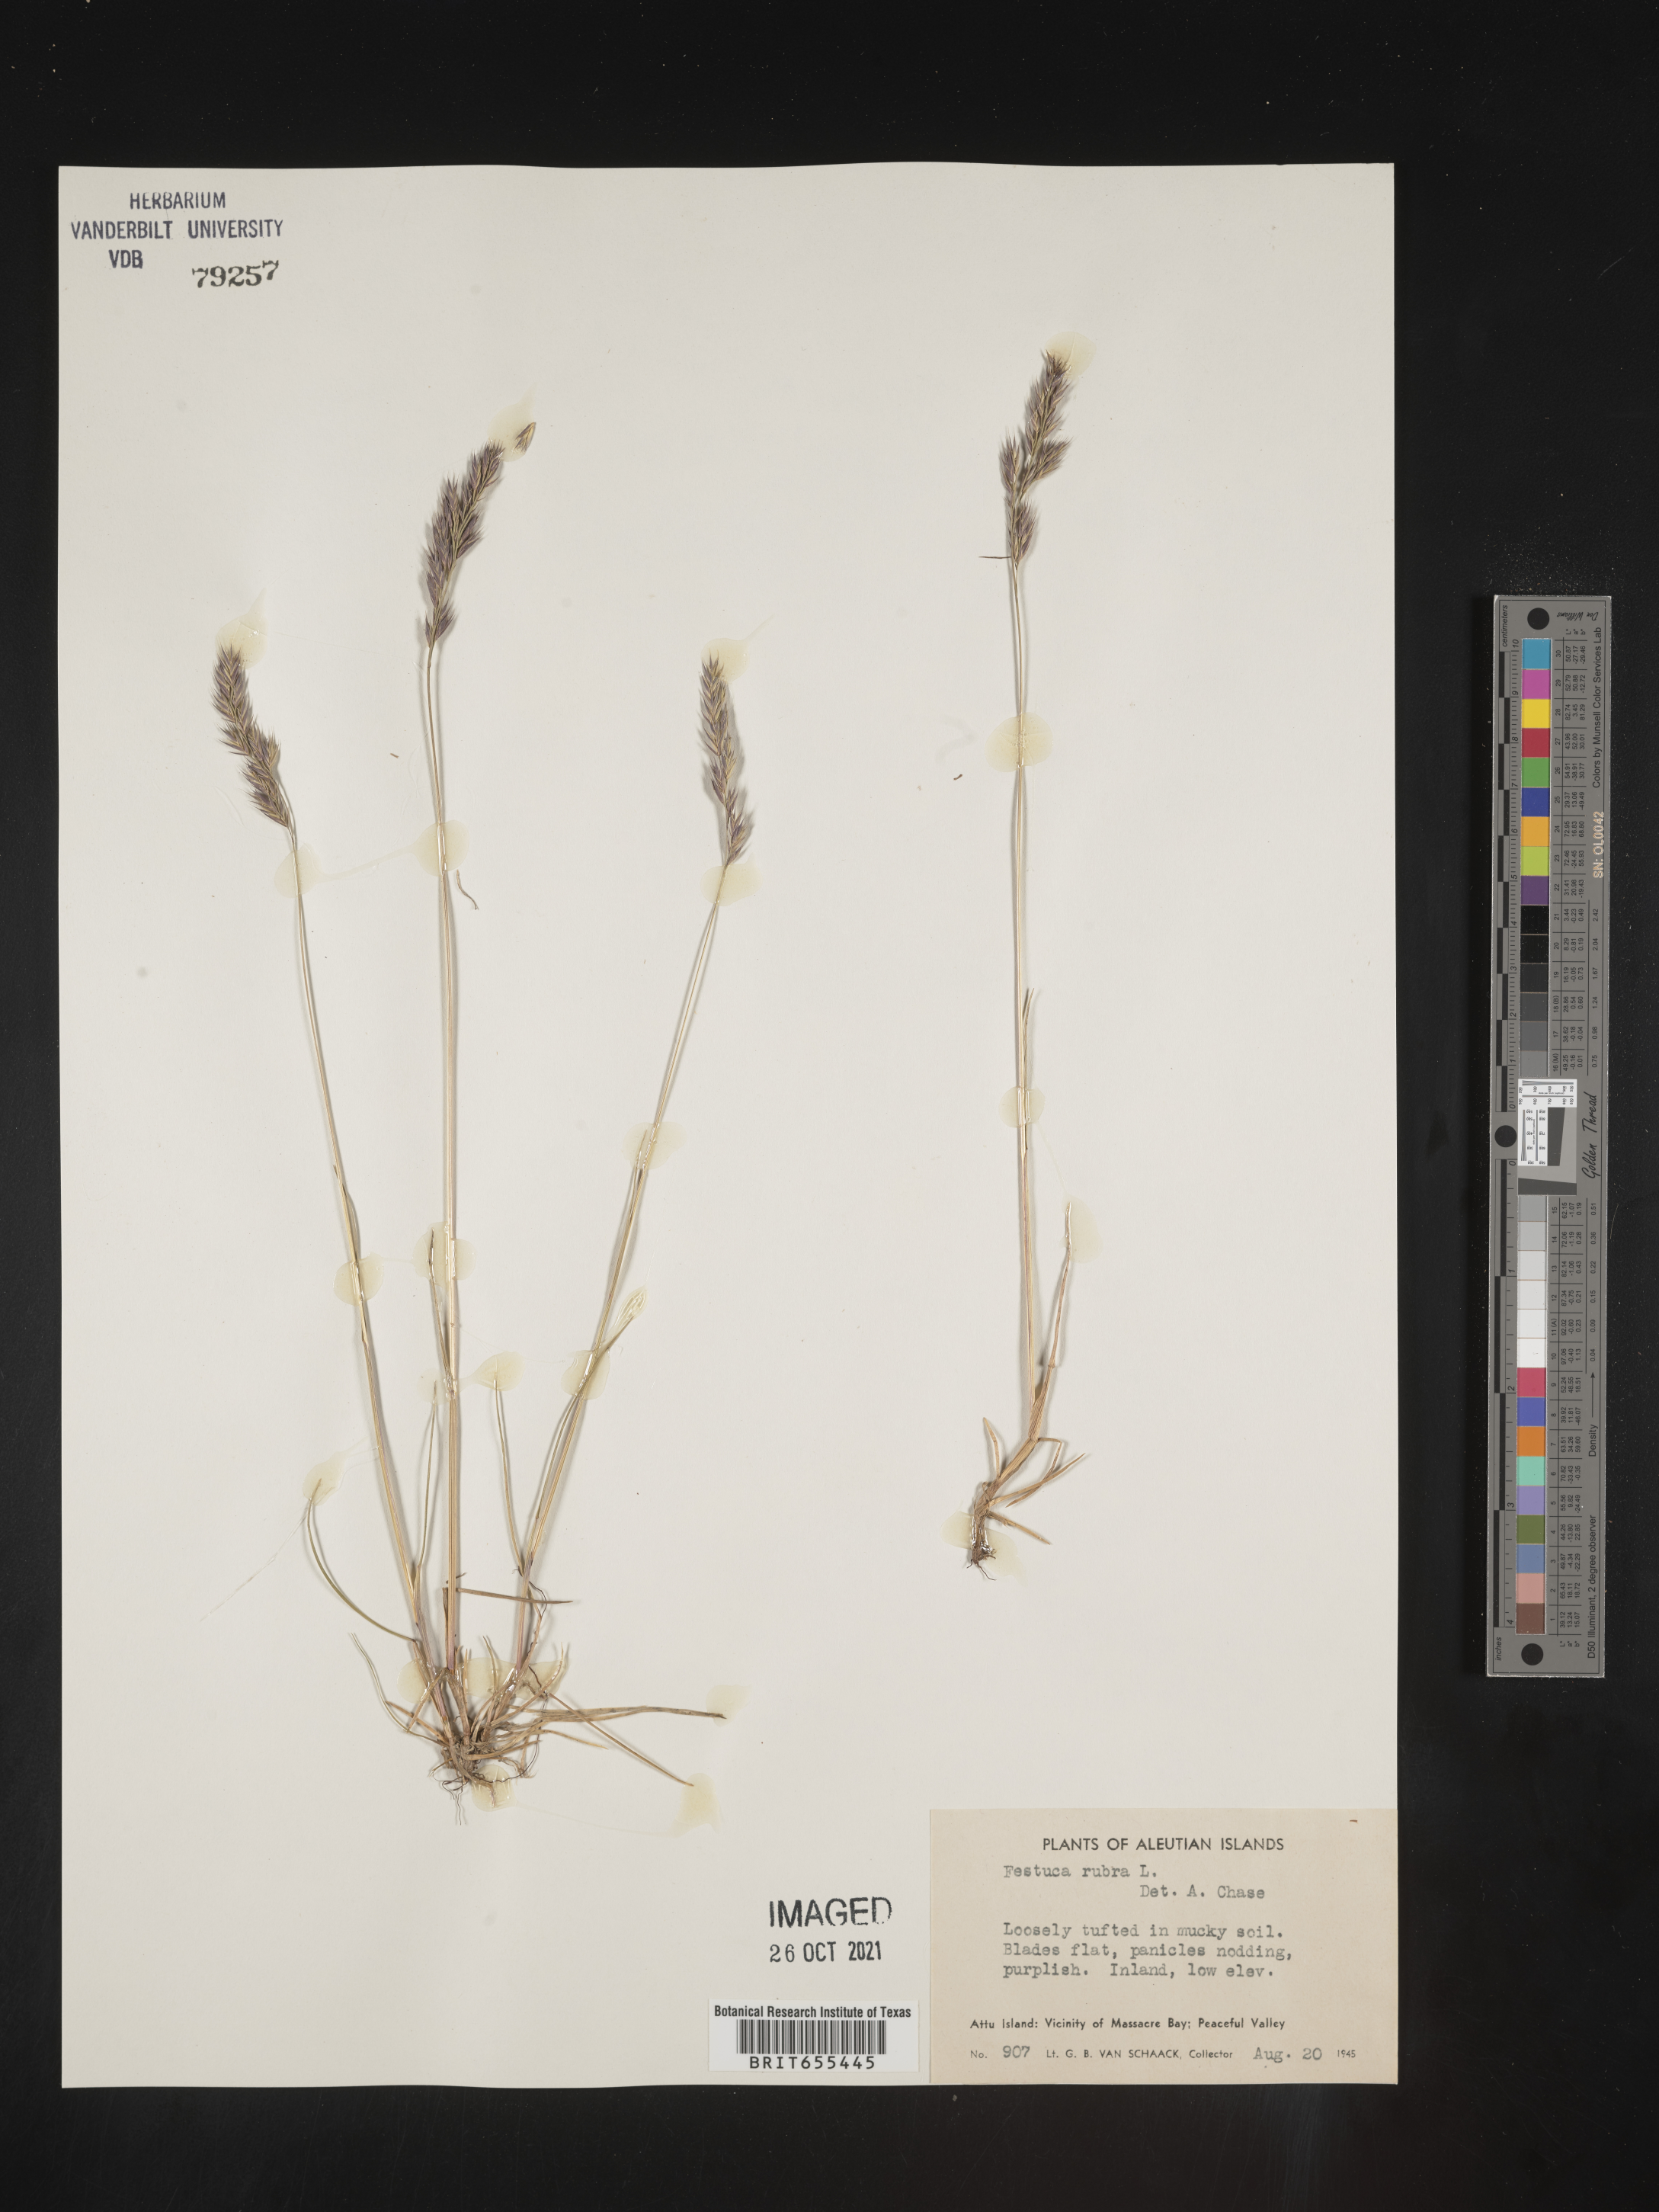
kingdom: Plantae
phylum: Tracheophyta
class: Liliopsida
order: Poales
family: Poaceae
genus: Festuca
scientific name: Festuca
